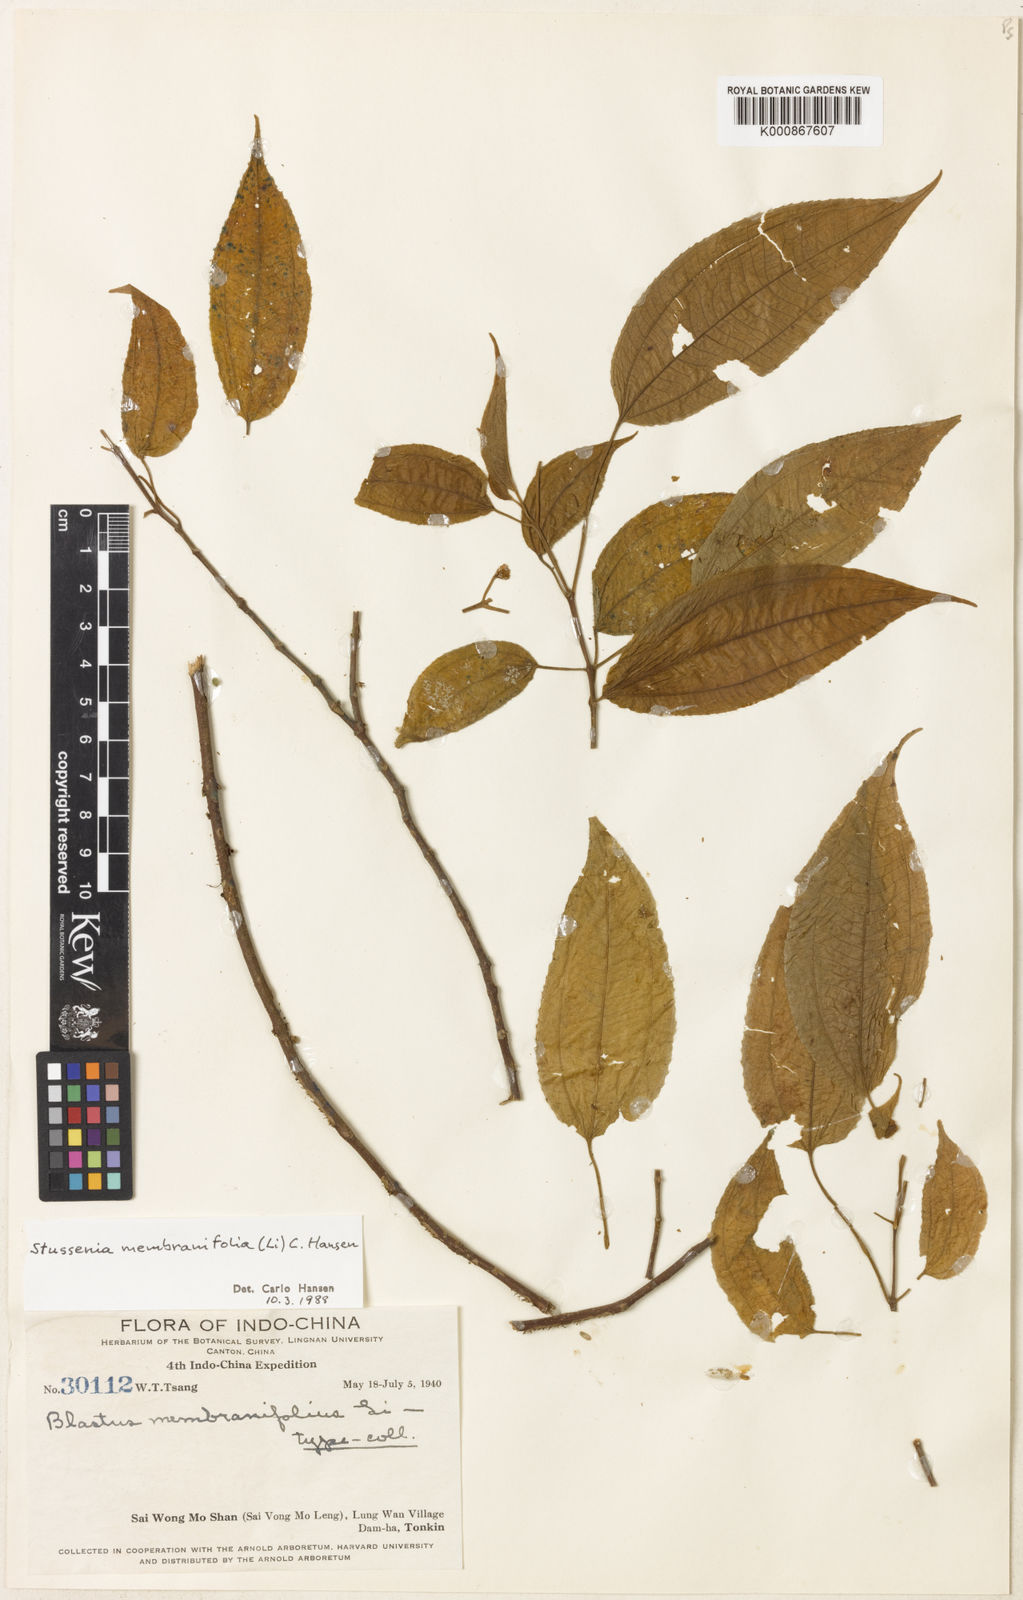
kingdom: Plantae
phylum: Tracheophyta
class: Magnoliopsida
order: Myrtales
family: Melastomataceae
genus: Stussenia
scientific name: Stussenia membranifolia
